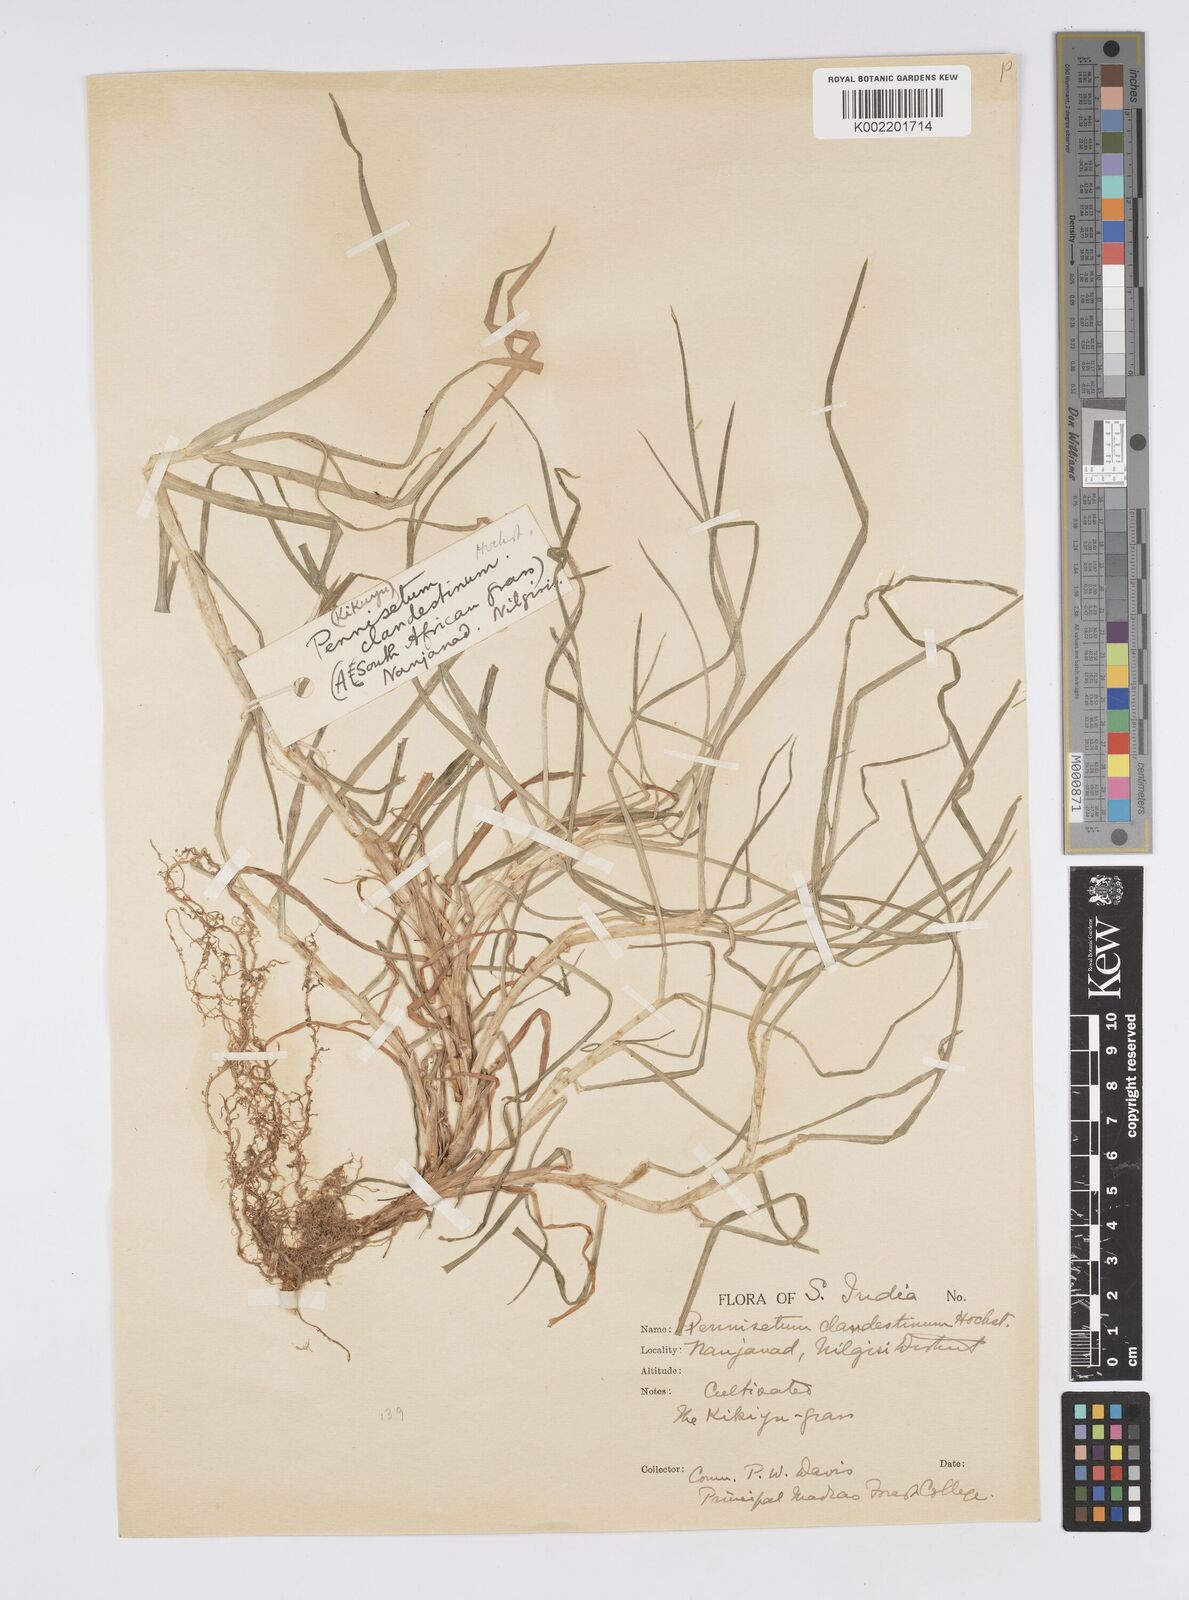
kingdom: Plantae
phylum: Tracheophyta
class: Liliopsida
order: Poales
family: Poaceae
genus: Cenchrus
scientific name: Cenchrus clandestinus
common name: Kikuyugrass
